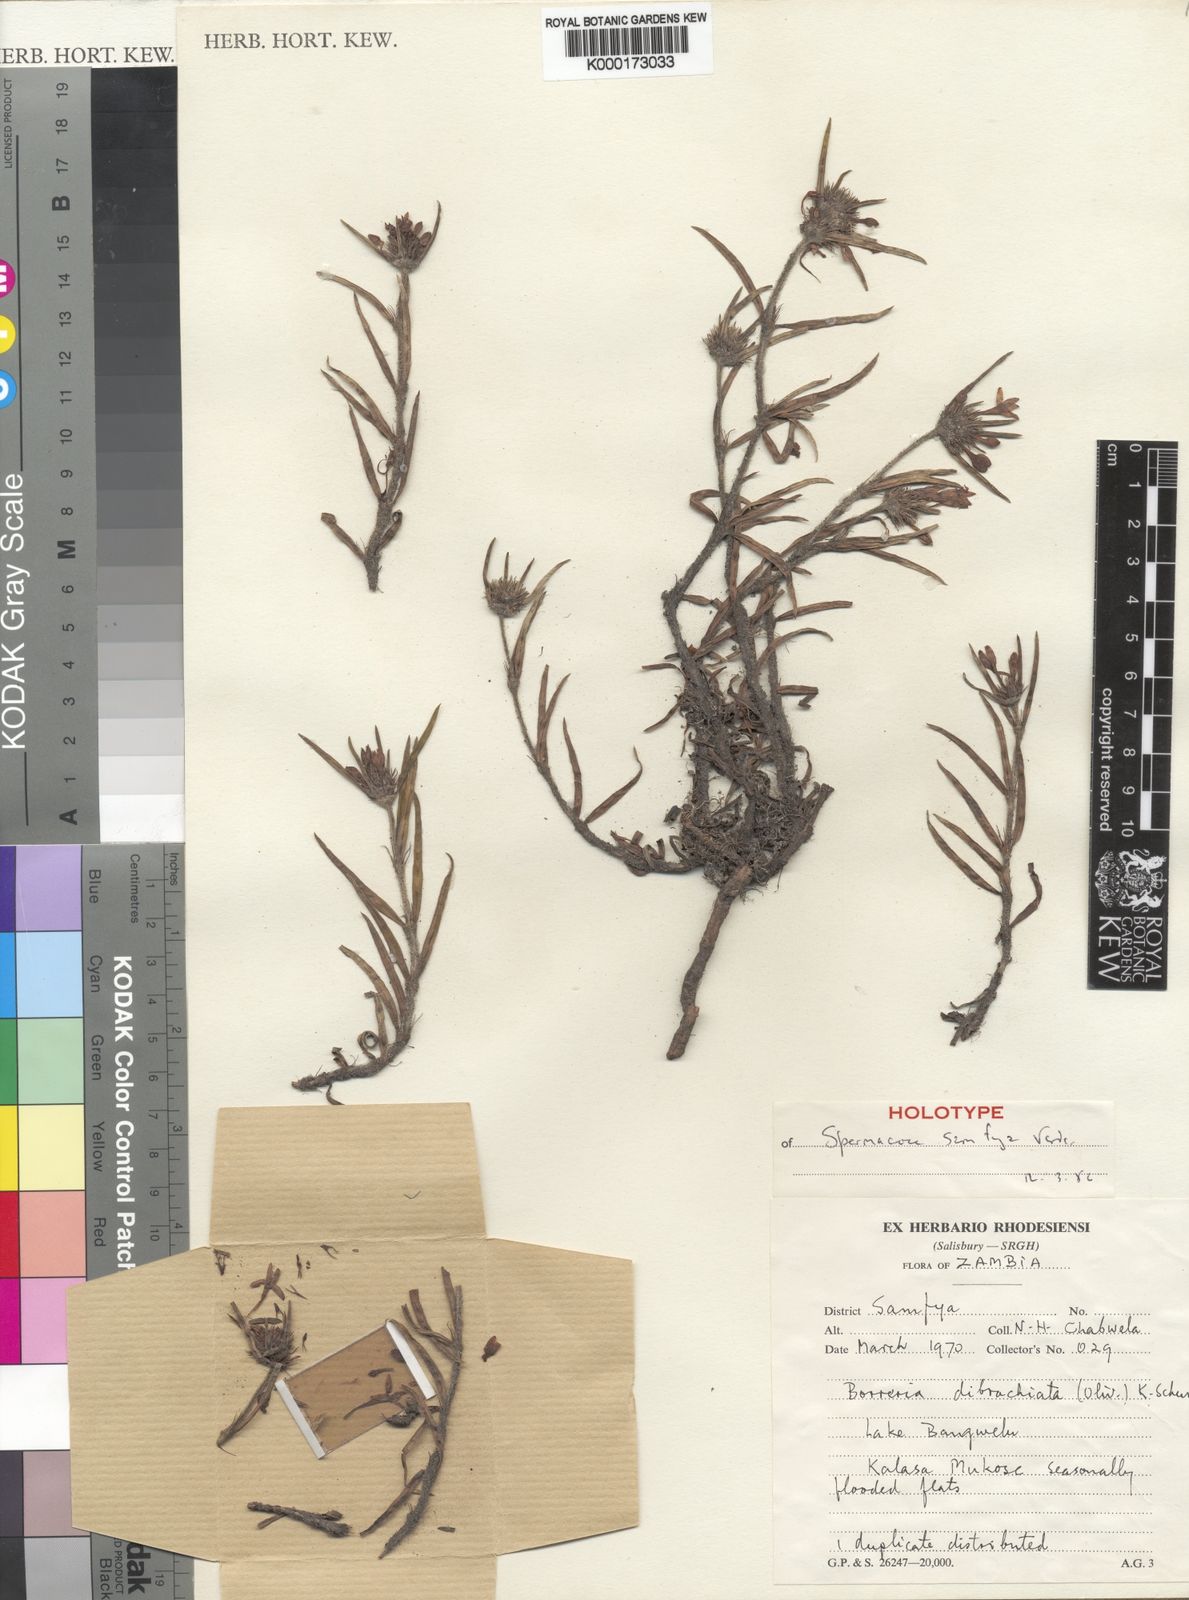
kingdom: Plantae
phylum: Tracheophyta
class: Magnoliopsida
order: Gentianales
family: Rubiaceae
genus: Spermacoce
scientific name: Spermacoce samfya
